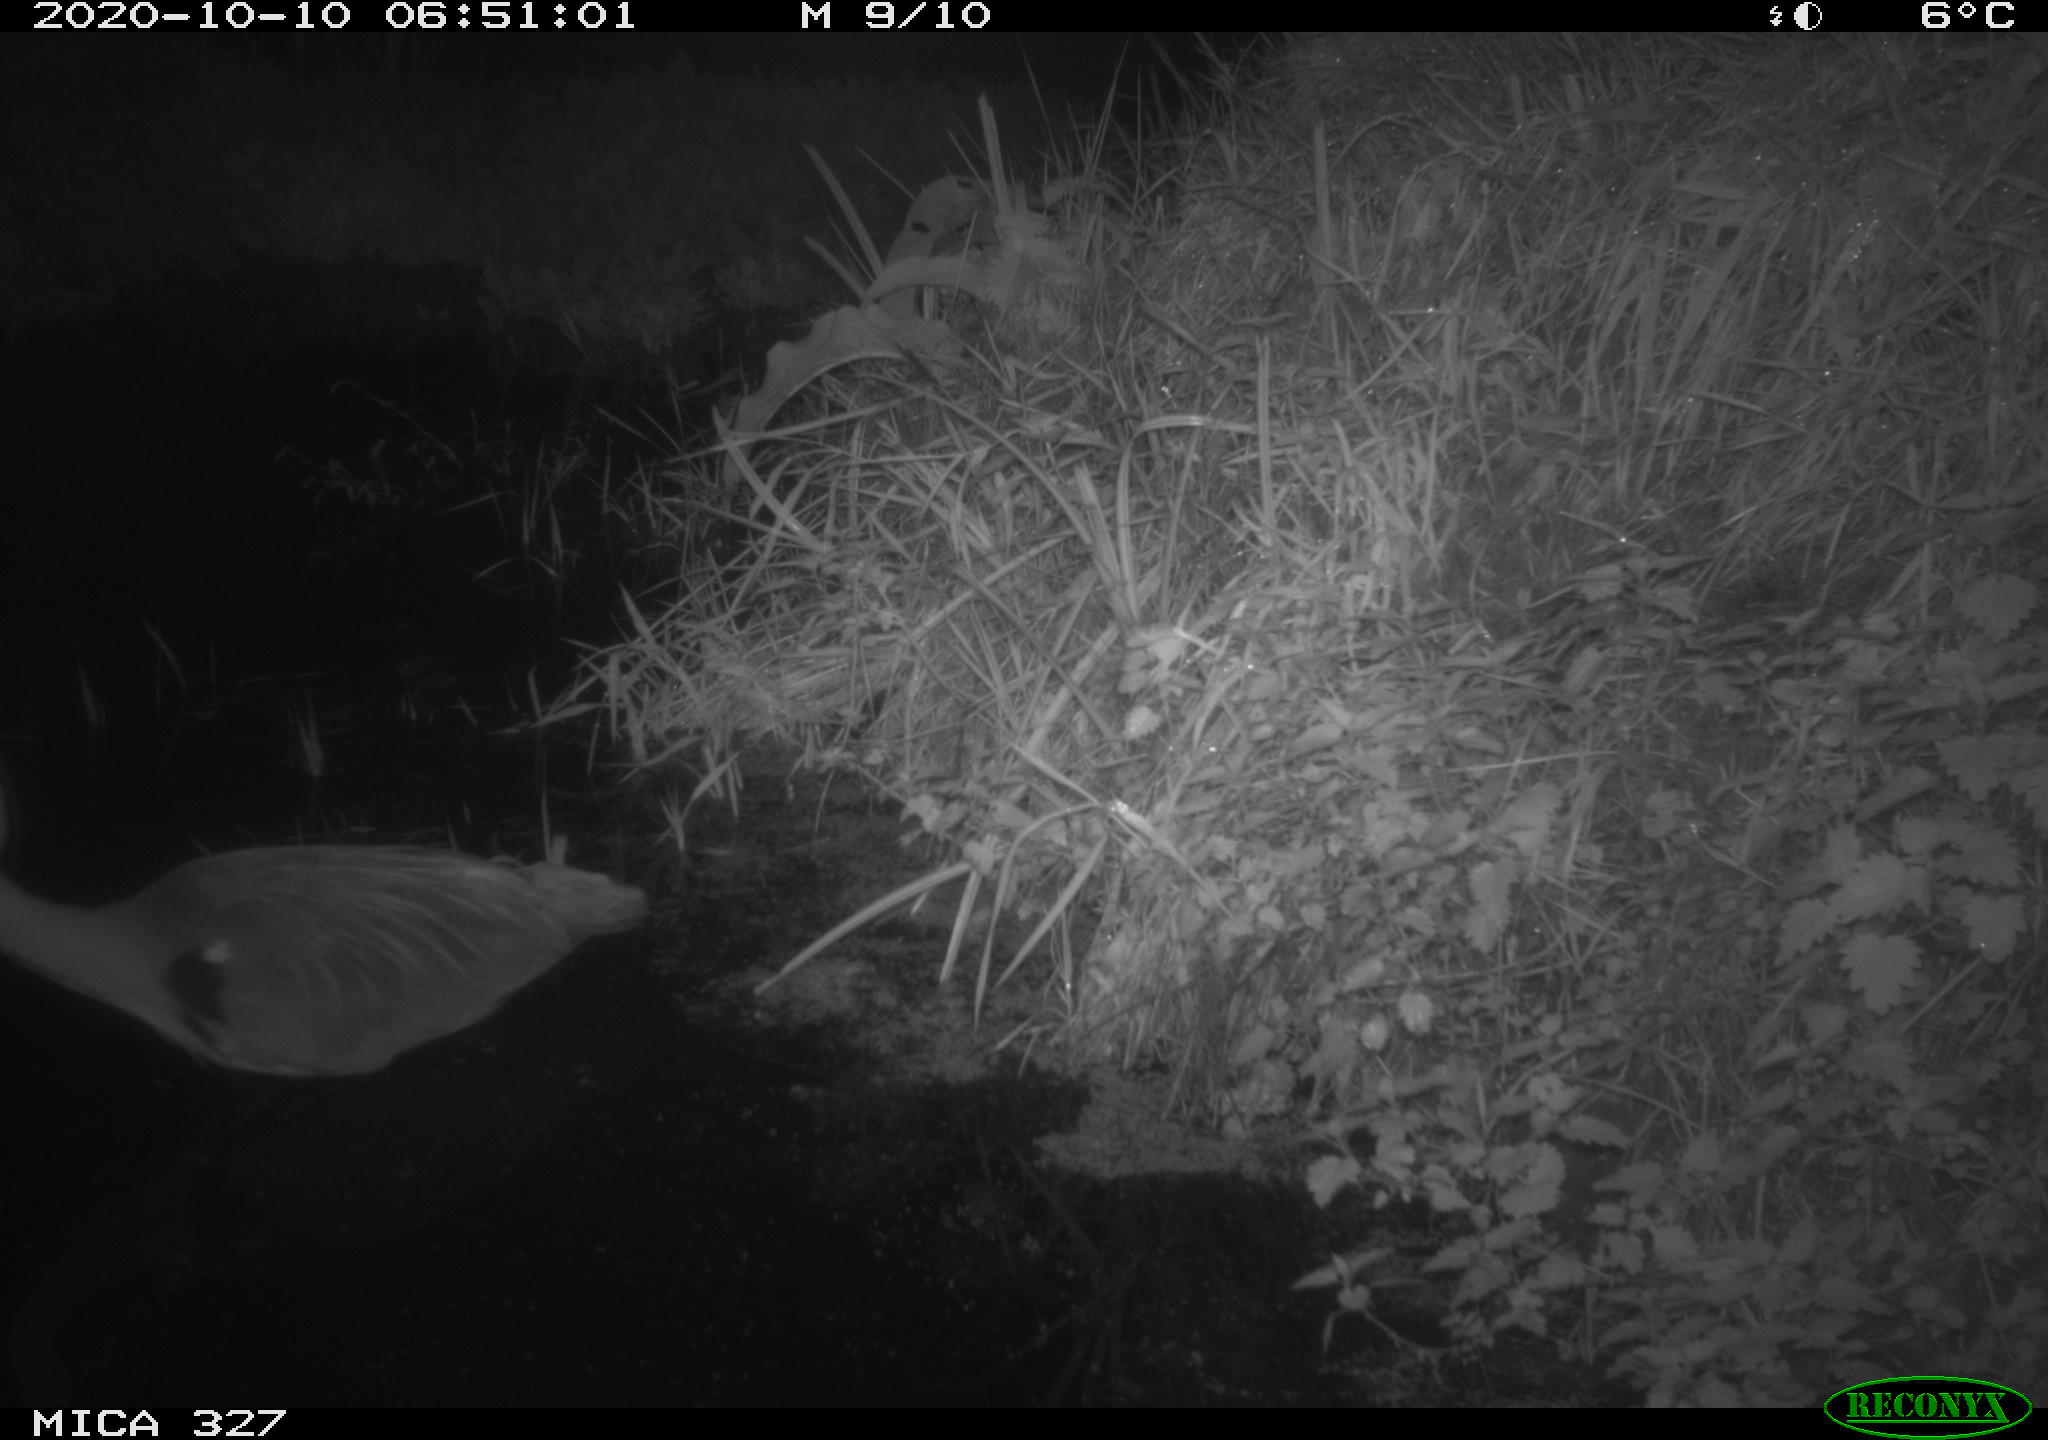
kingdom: Animalia
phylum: Chordata
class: Aves
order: Pelecaniformes
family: Ardeidae
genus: Ardea
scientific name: Ardea cinerea
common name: Grey heron
